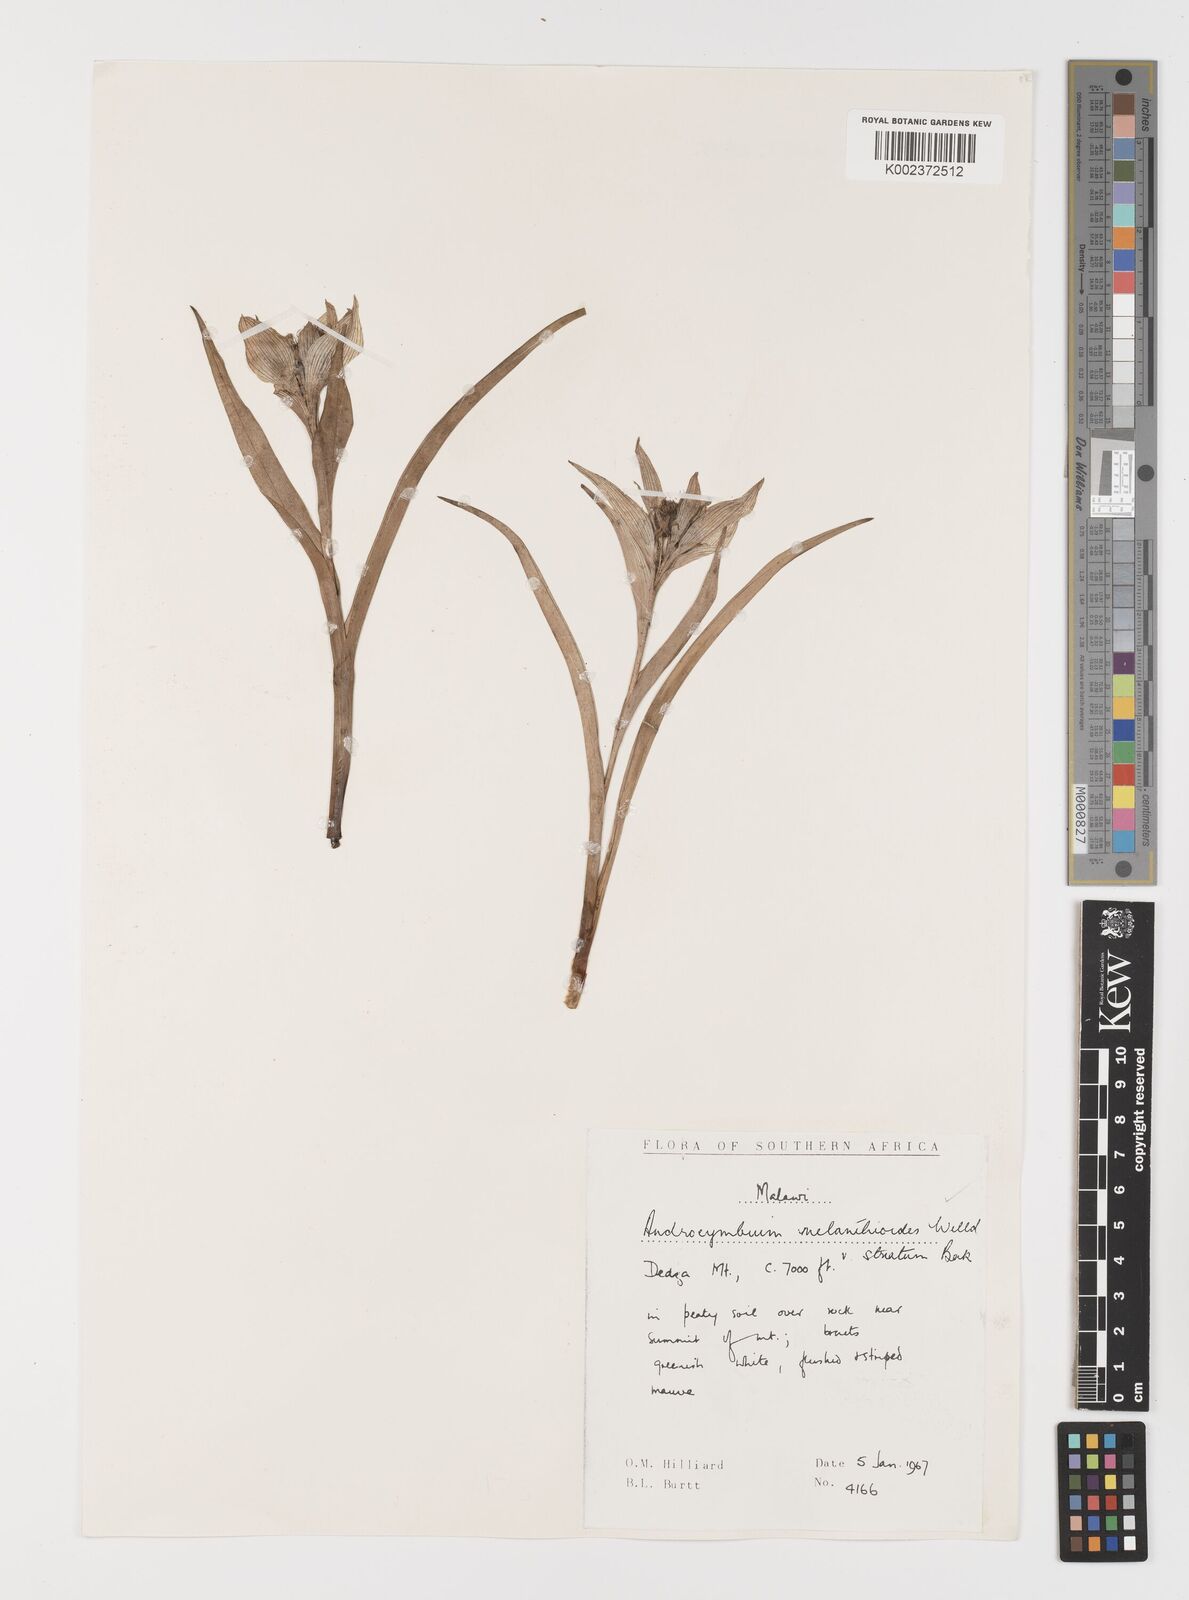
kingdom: Plantae
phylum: Tracheophyta
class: Liliopsida
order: Liliales
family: Colchicaceae
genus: Colchicum
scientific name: Colchicum melanthioides
